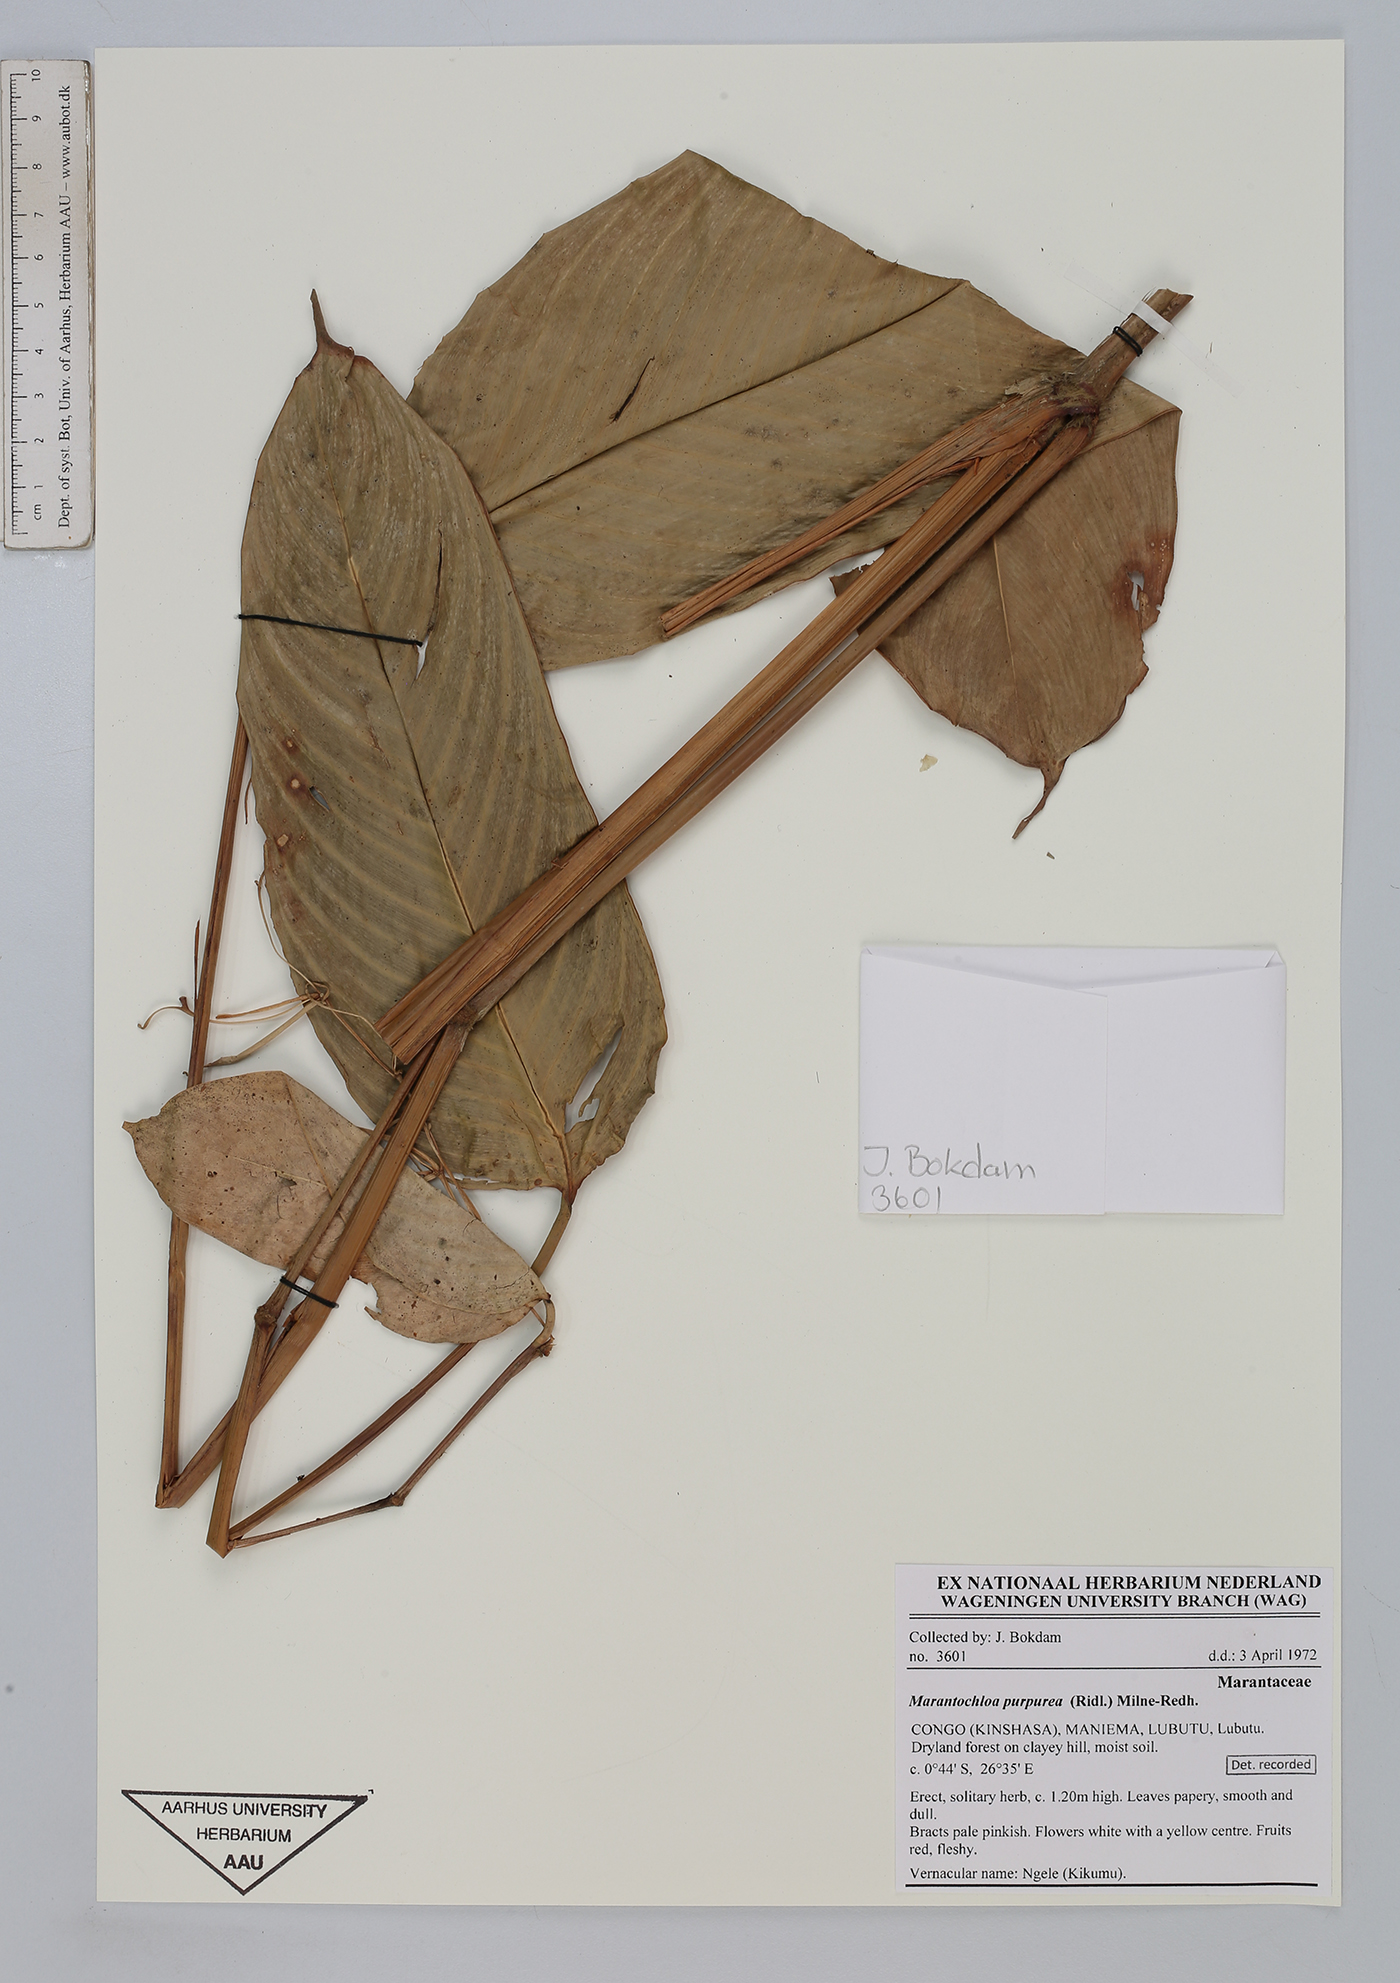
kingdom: Plantae
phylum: Tracheophyta
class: Liliopsida
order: Zingiberales
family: Marantaceae
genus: Marantochloa
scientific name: Marantochloa purpurea
